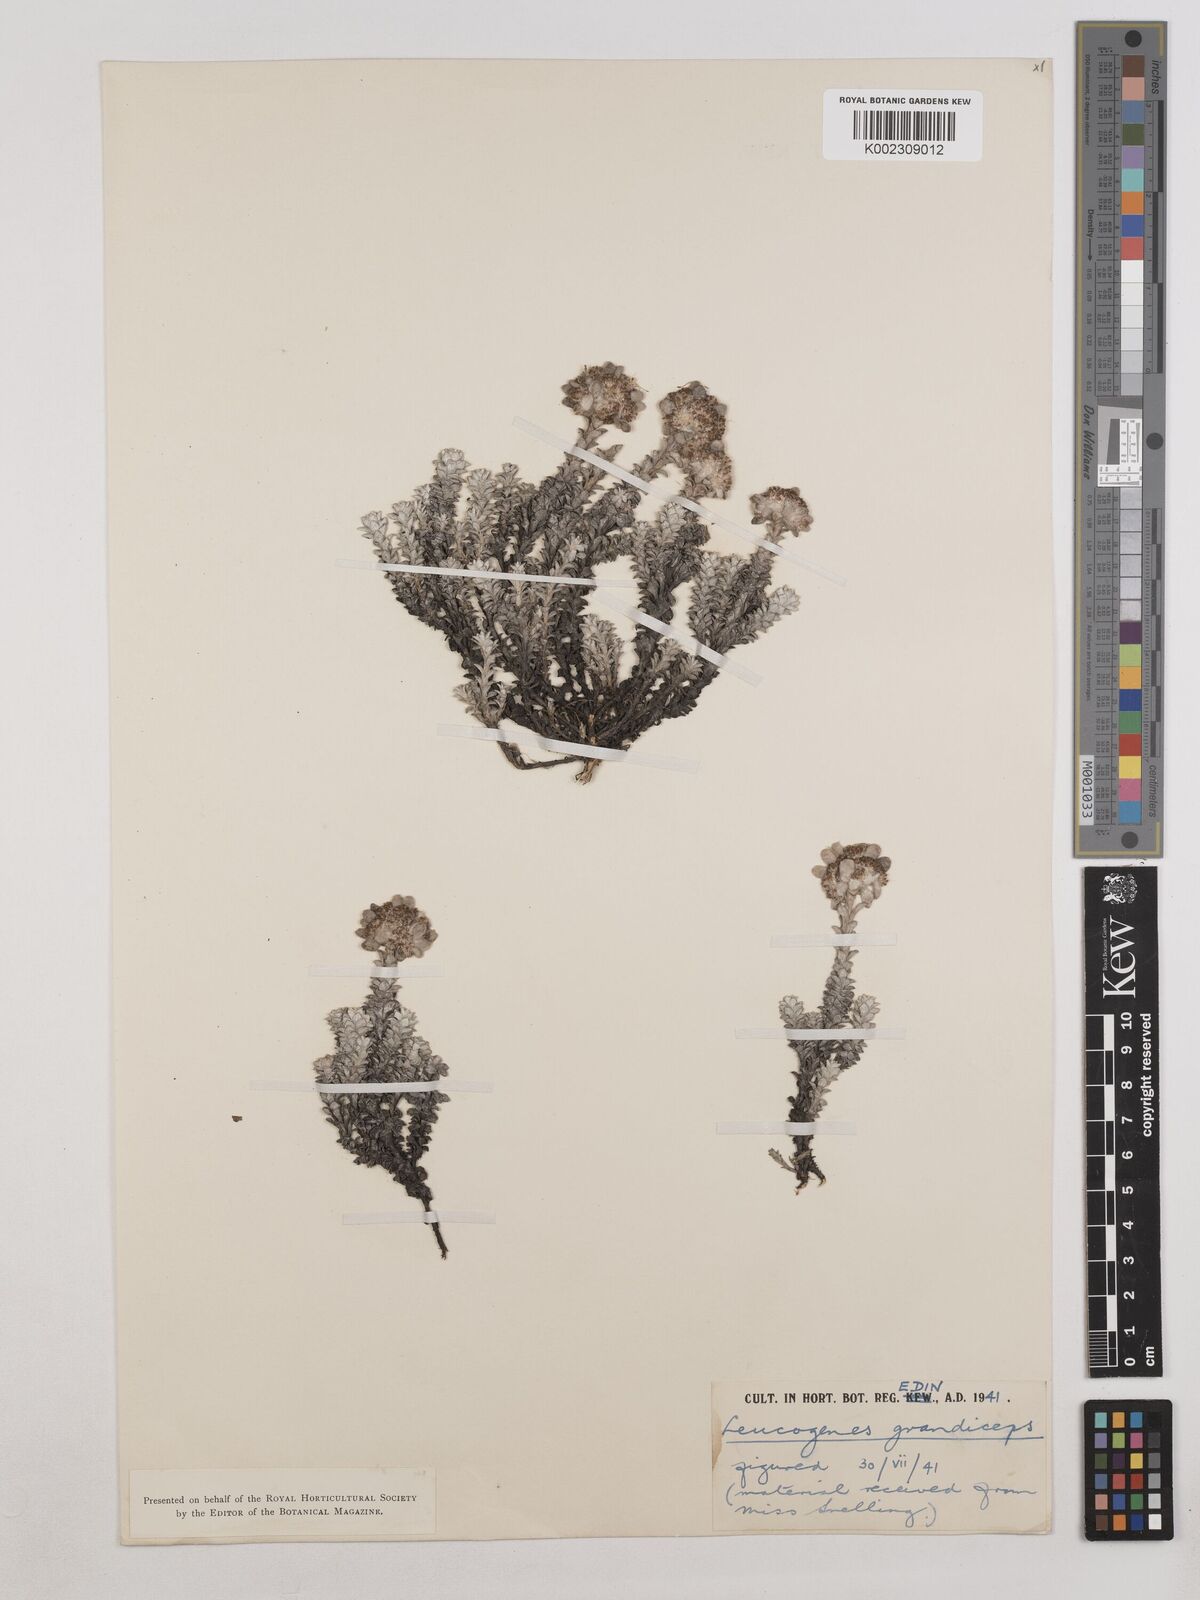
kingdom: Plantae
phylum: Tracheophyta
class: Magnoliopsida
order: Asterales
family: Asteraceae
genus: Leucogenes
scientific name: Leucogenes grandiceps
